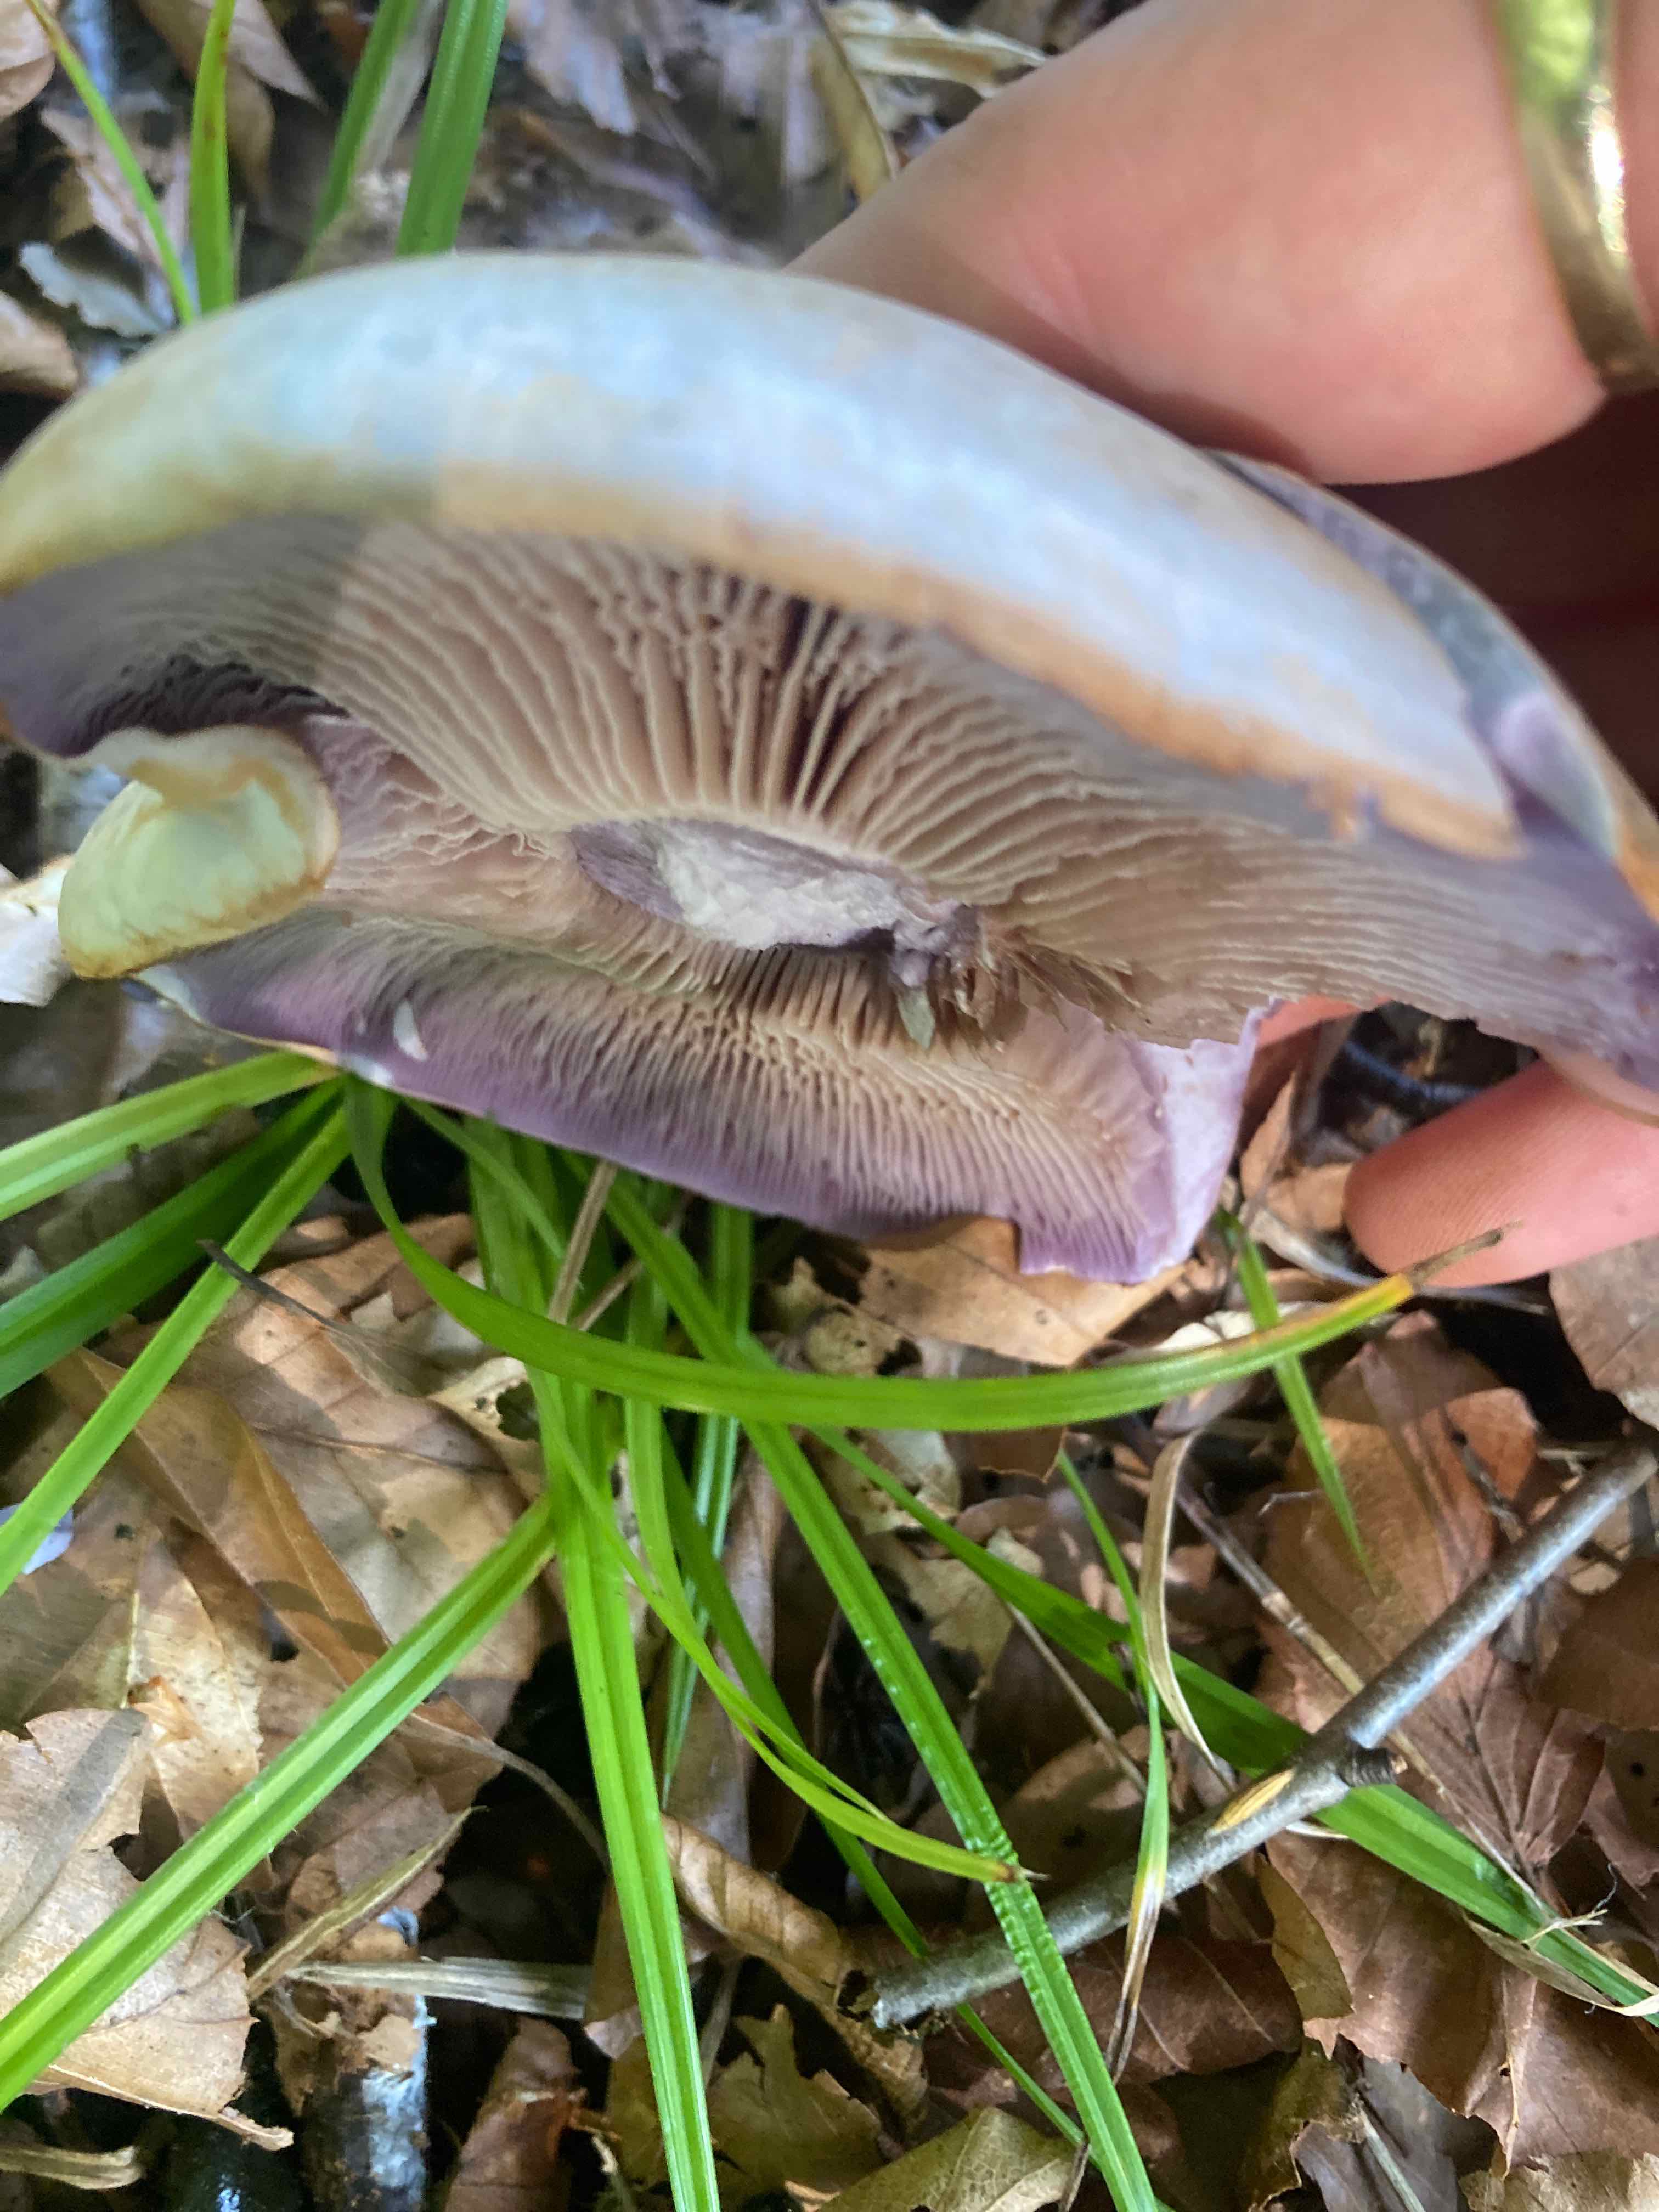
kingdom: Fungi
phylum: Basidiomycota
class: Agaricomycetes
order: Agaricales
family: Cortinariaceae
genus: Cortinarius
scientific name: Cortinarius largus
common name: violetrandet slørhat
